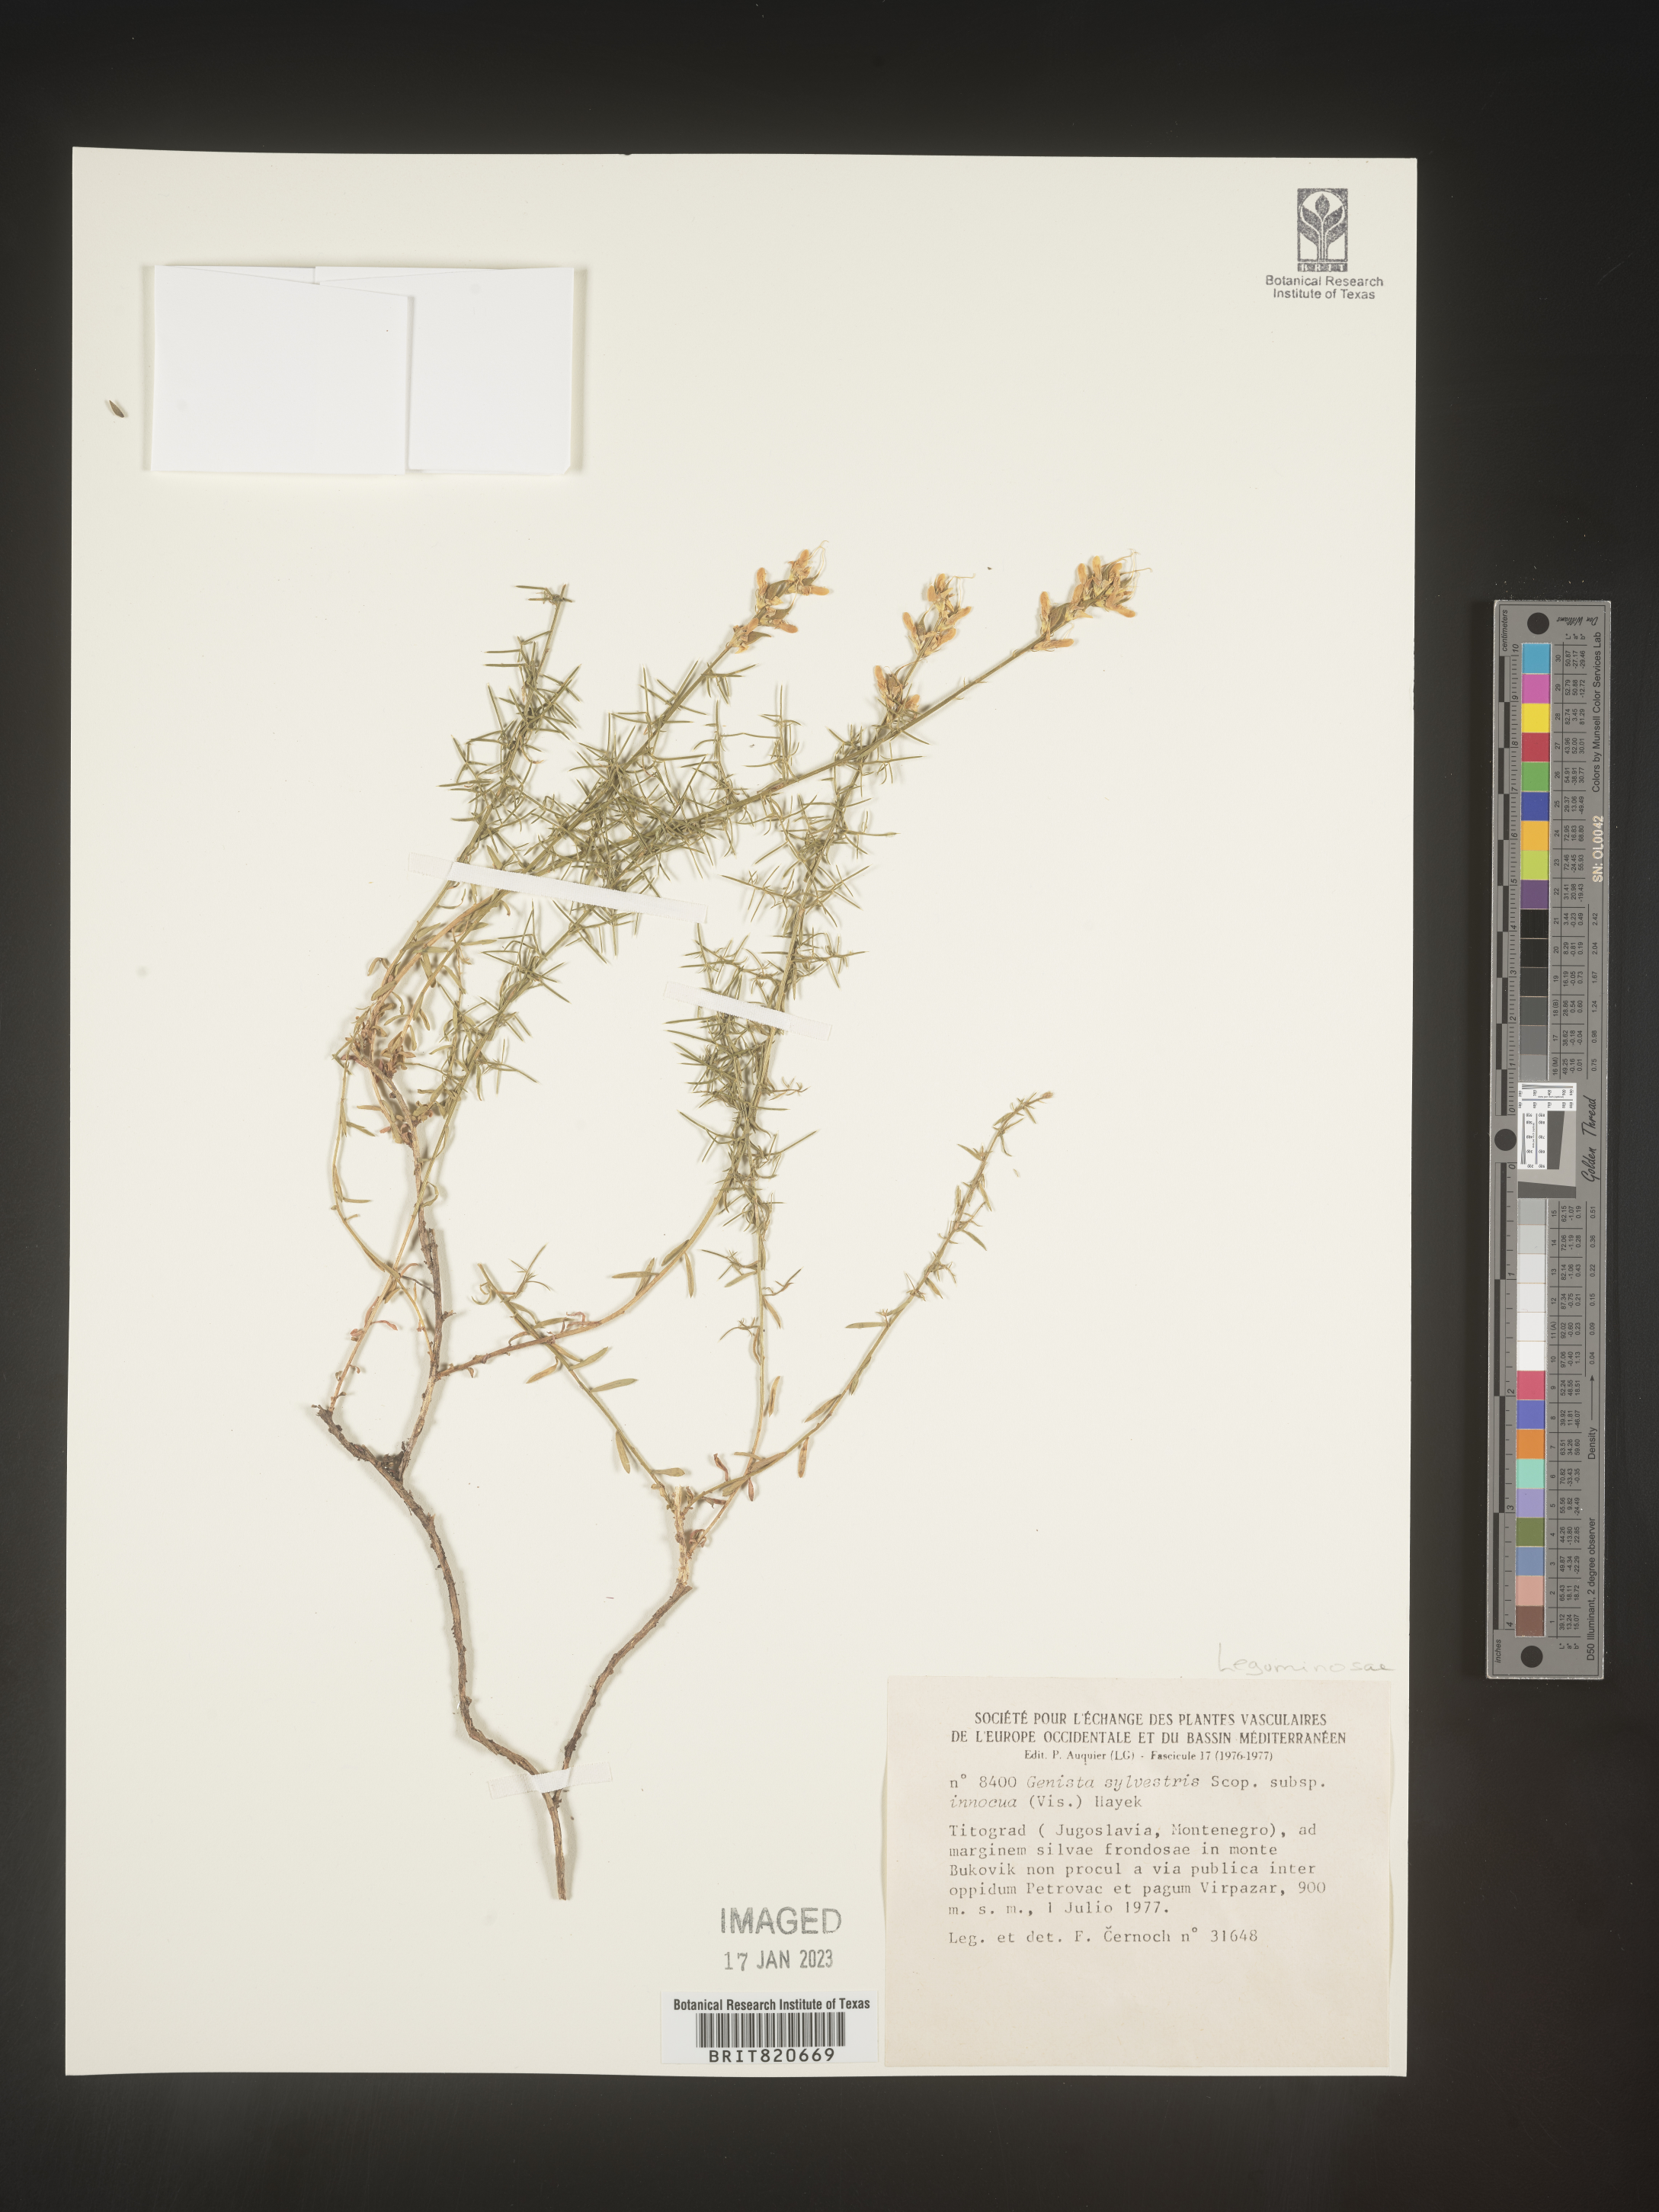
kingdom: Plantae
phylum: Tracheophyta
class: Magnoliopsida
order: Fabales
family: Fabaceae
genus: Genista
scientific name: Genista
